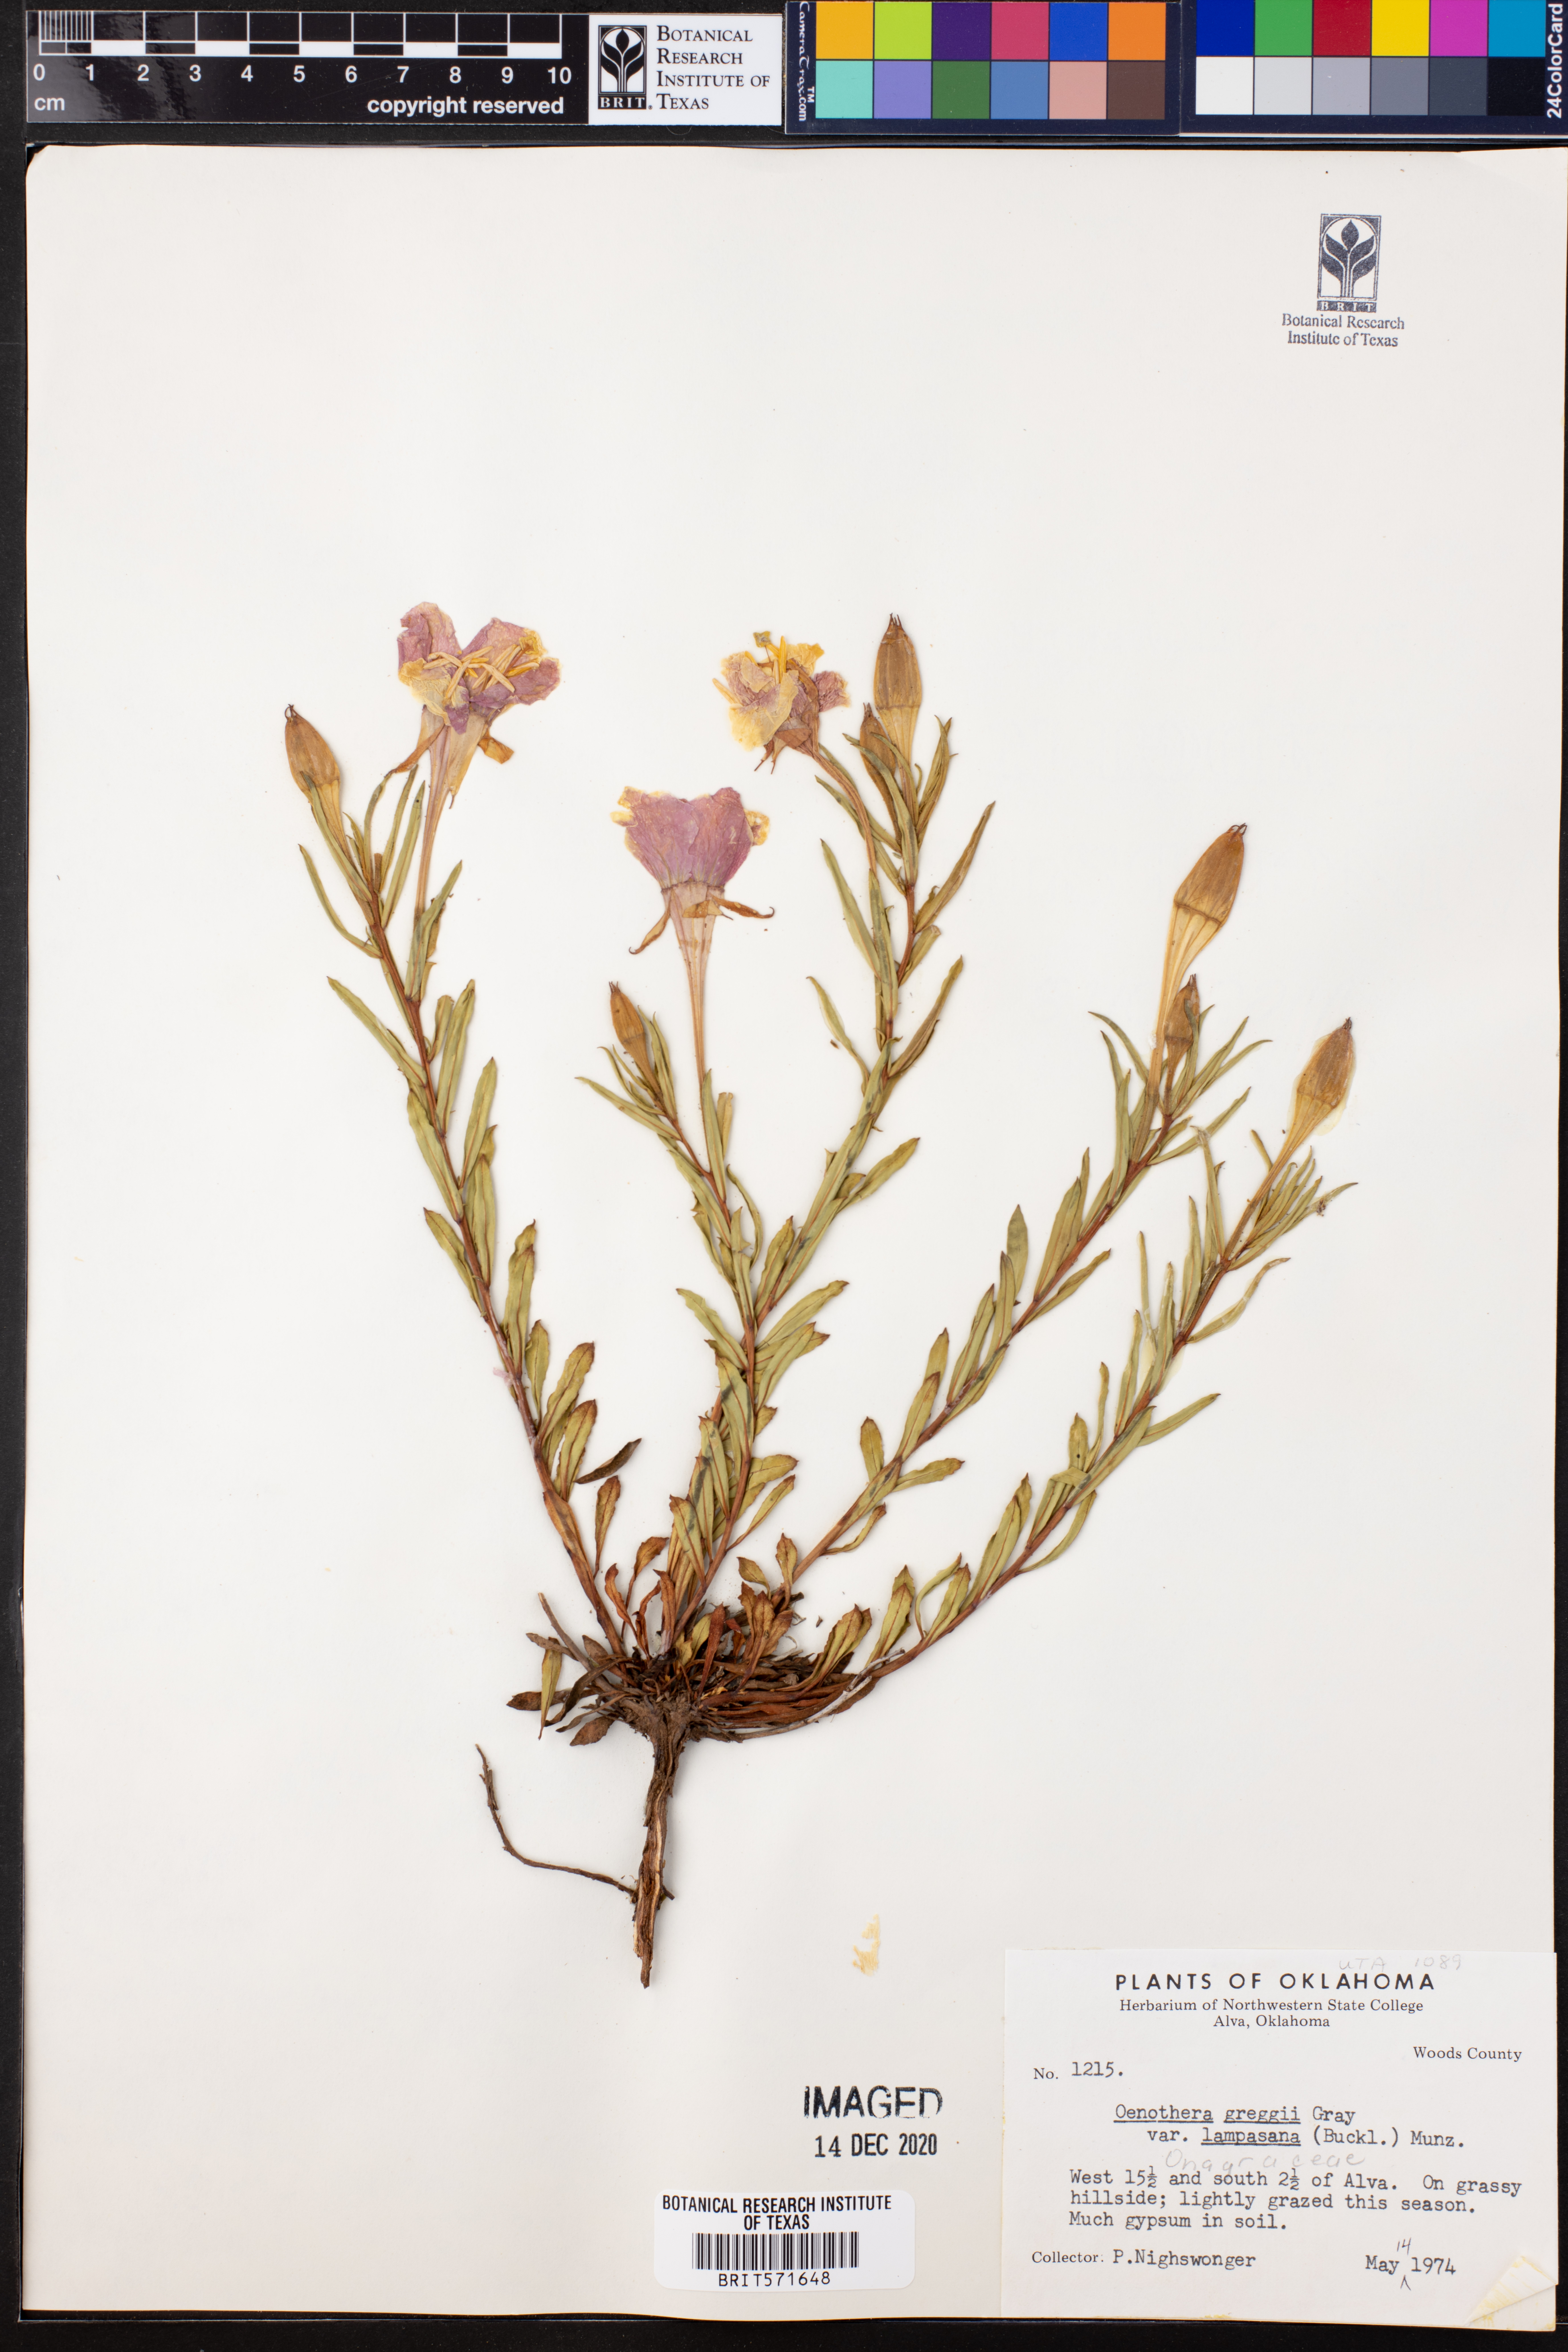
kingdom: Plantae
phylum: Tracheophyta
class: Magnoliopsida
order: Myrtales
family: Onagraceae
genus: Oenothera
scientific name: Oenothera hartwegii
